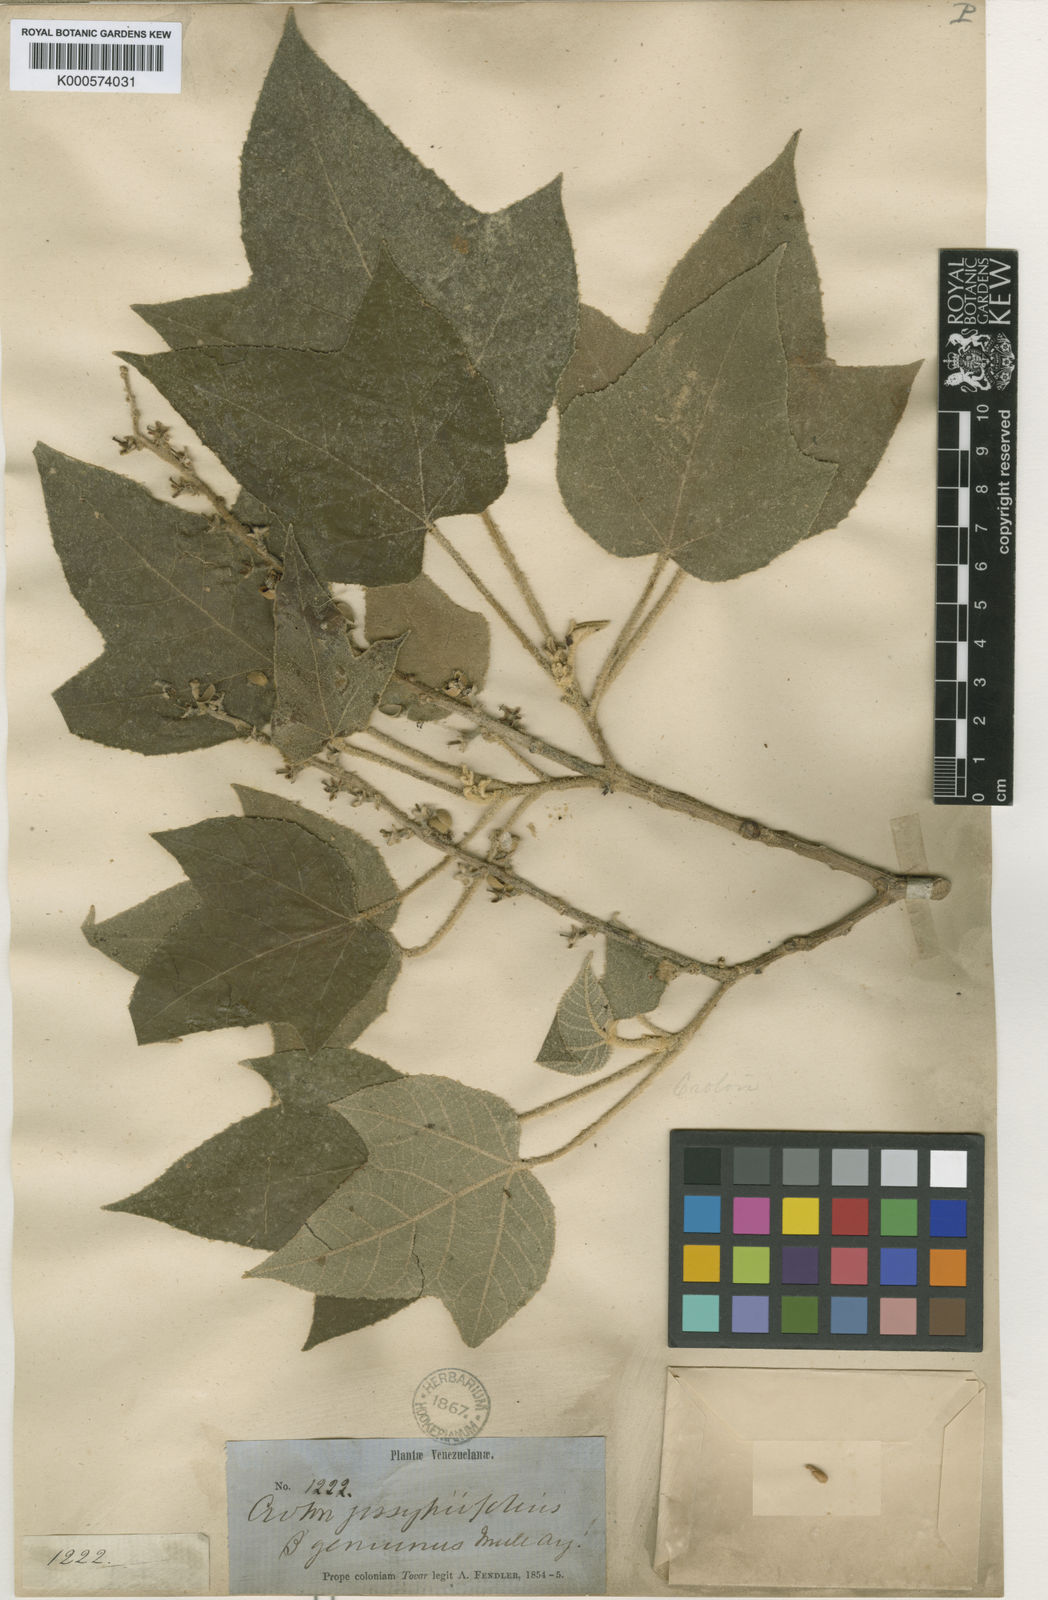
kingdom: Plantae
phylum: Tracheophyta
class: Magnoliopsida
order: Malpighiales
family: Euphorbiaceae
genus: Croton
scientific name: Croton gossypiifolius
